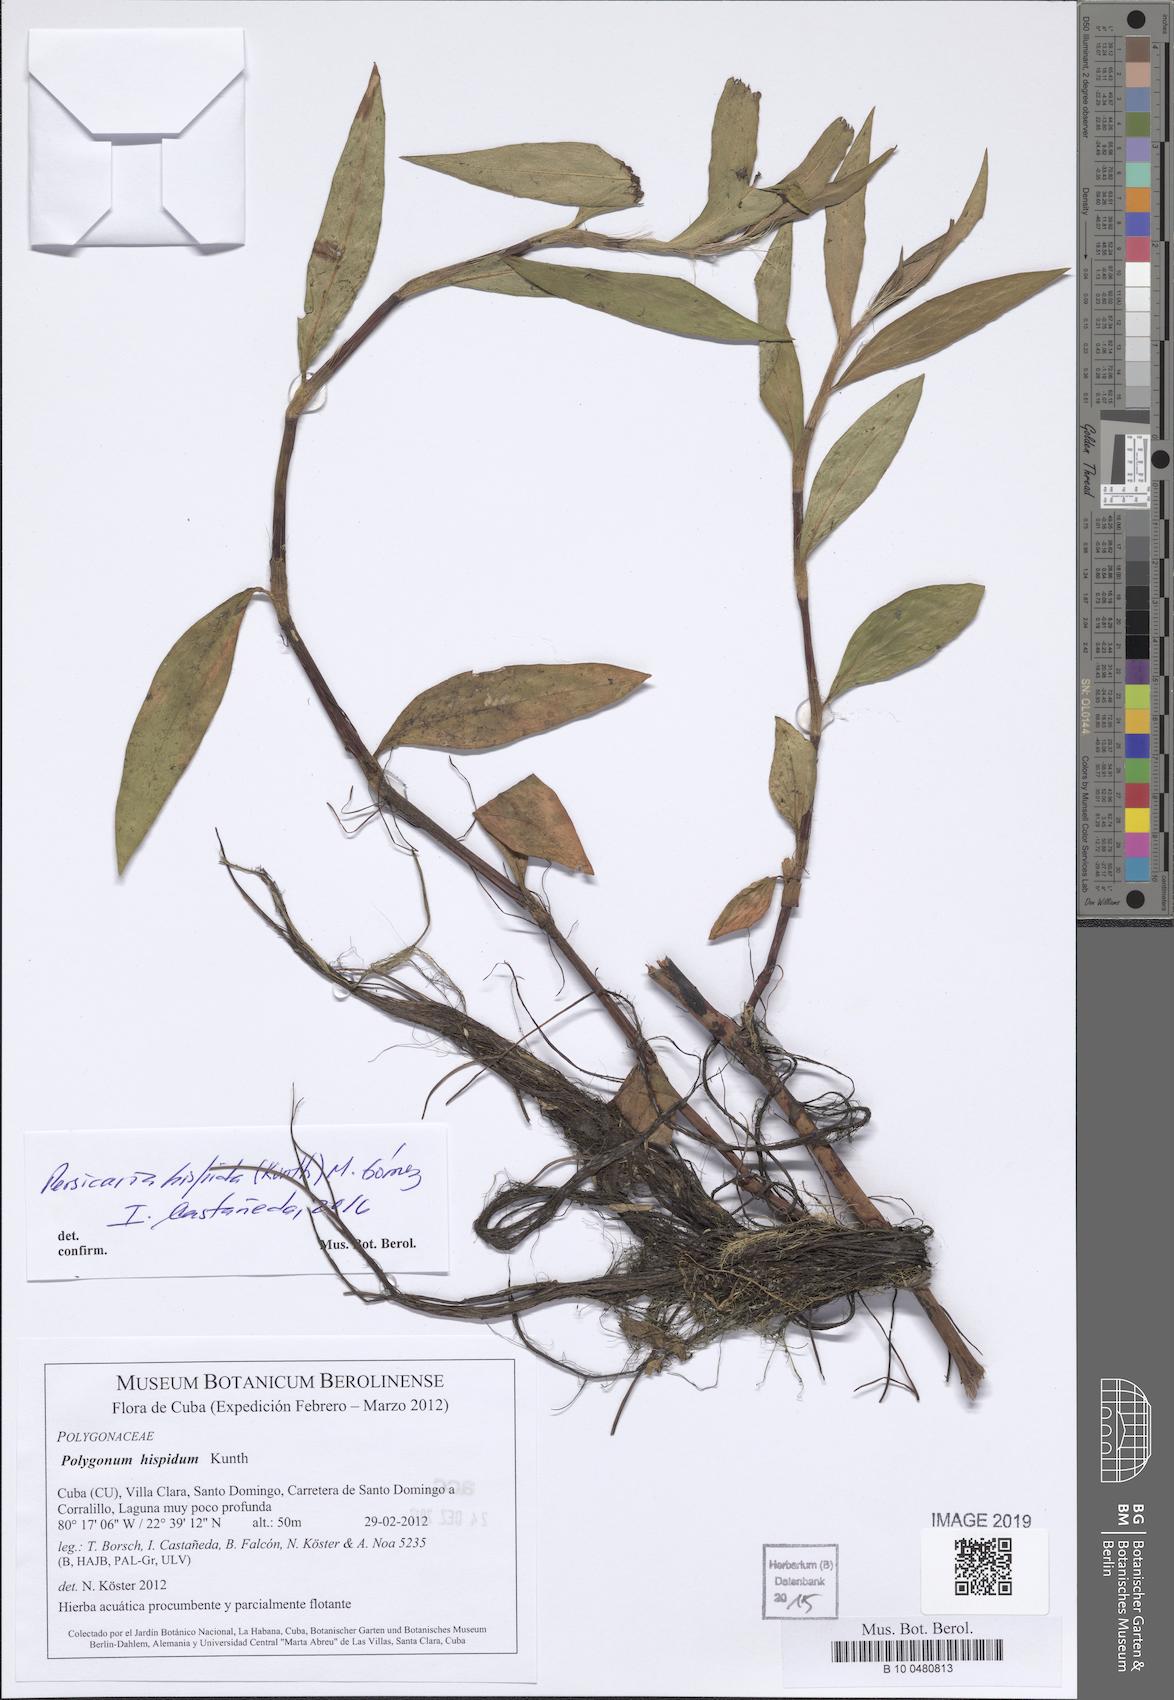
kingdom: Plantae
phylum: Tracheophyta
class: Magnoliopsida
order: Caryophyllales
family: Polygonaceae
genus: Persicaria
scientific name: Persicaria acuminata
